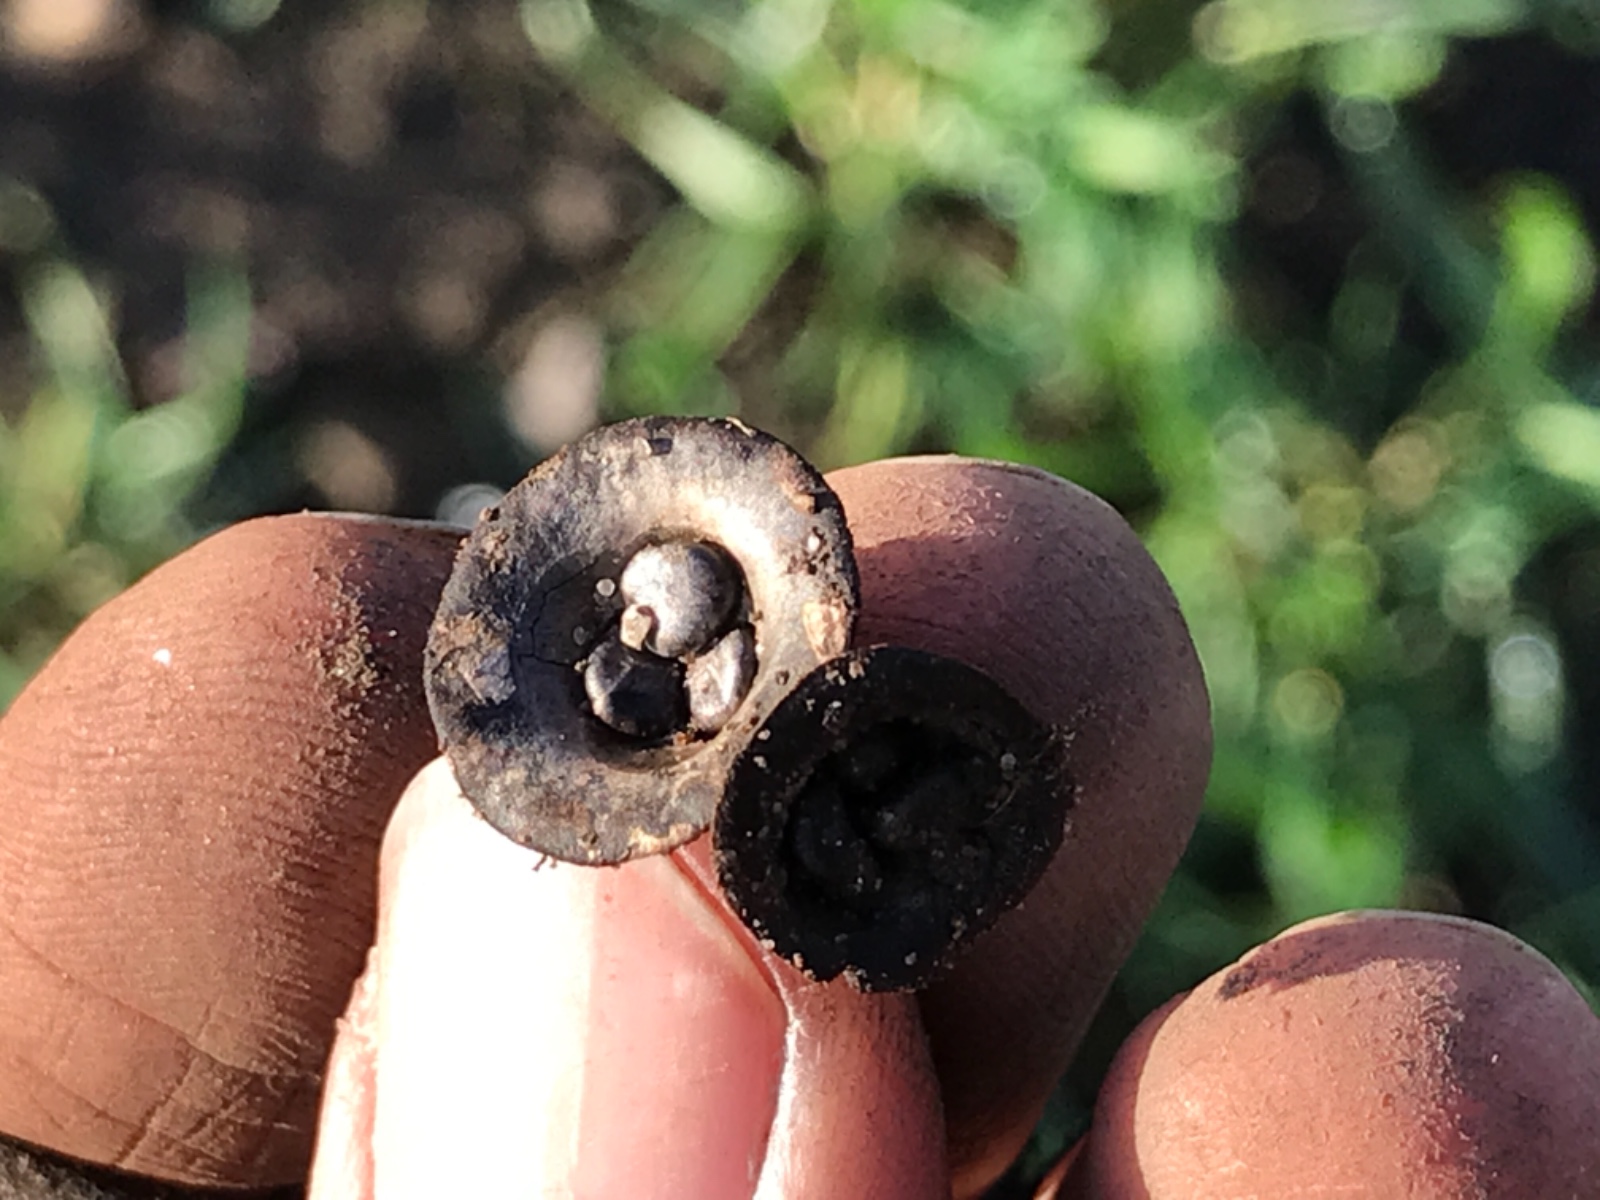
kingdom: Fungi
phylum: Basidiomycota
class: Agaricomycetes
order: Agaricales
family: Agaricaceae
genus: Cyathus
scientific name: Cyathus olla
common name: klokke-redesvamp
